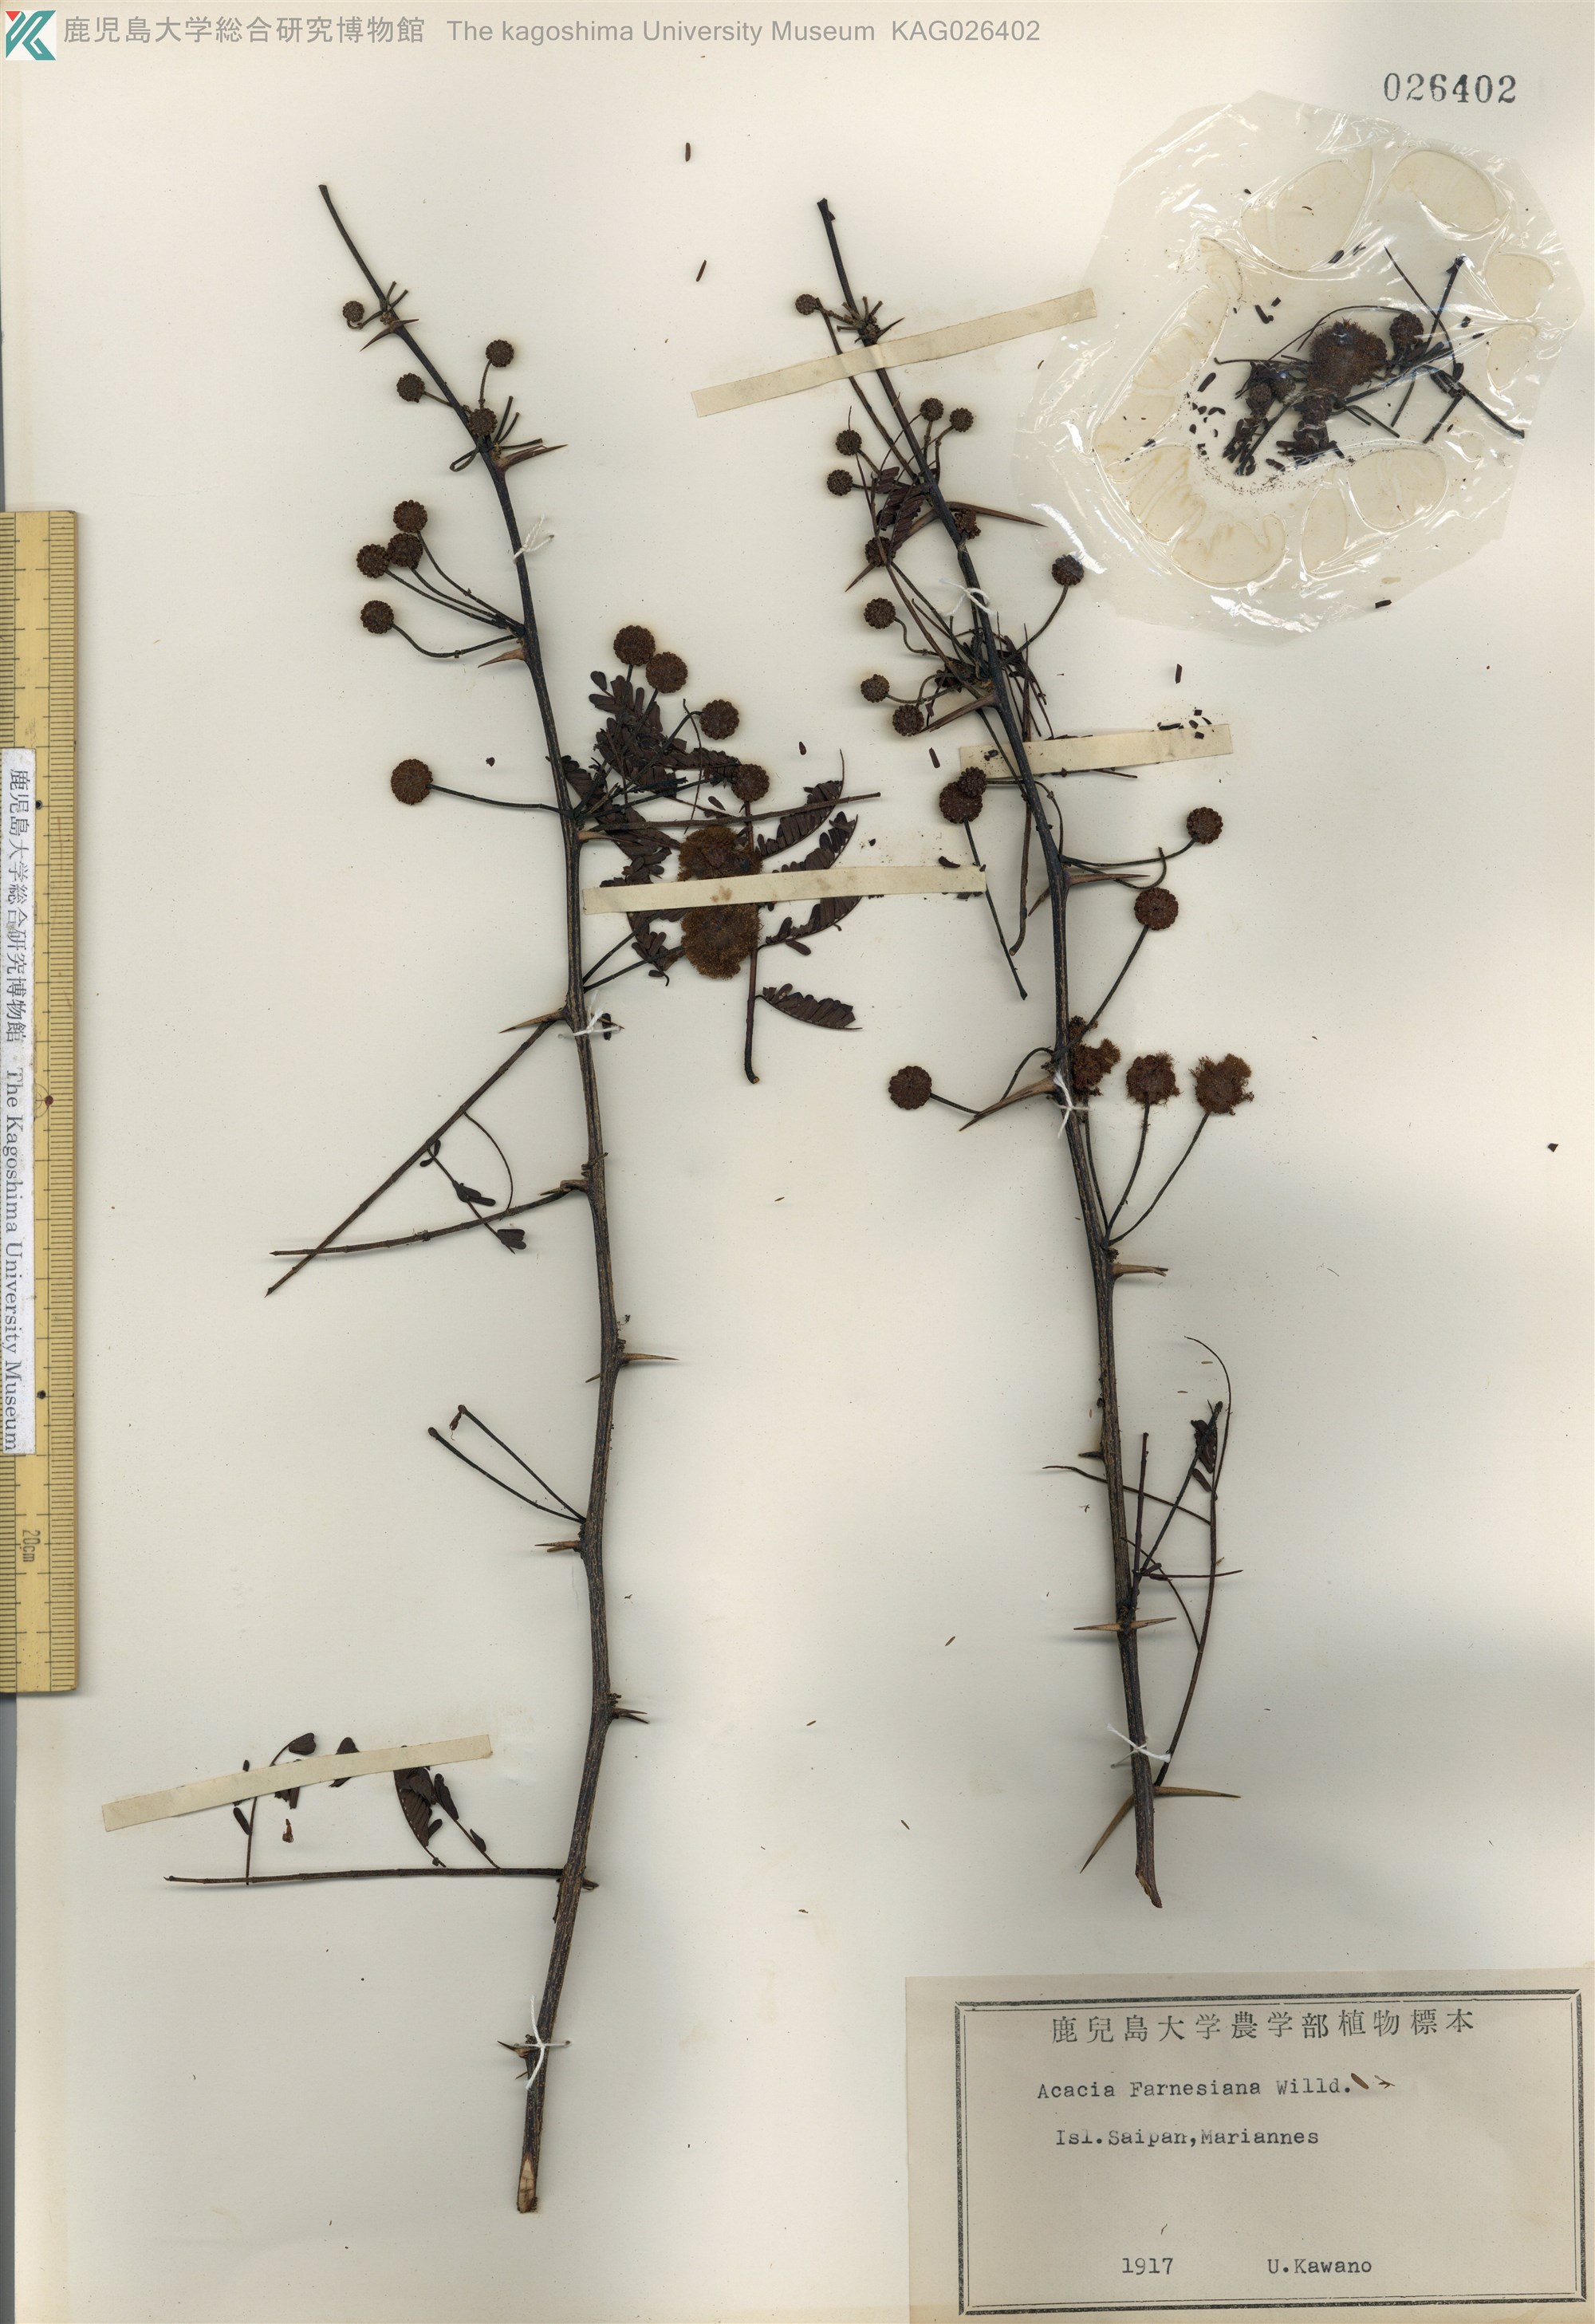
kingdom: Plantae
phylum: Tracheophyta
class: Magnoliopsida
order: Fabales
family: Fabaceae
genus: Vachellia
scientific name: Vachellia farnesiana
